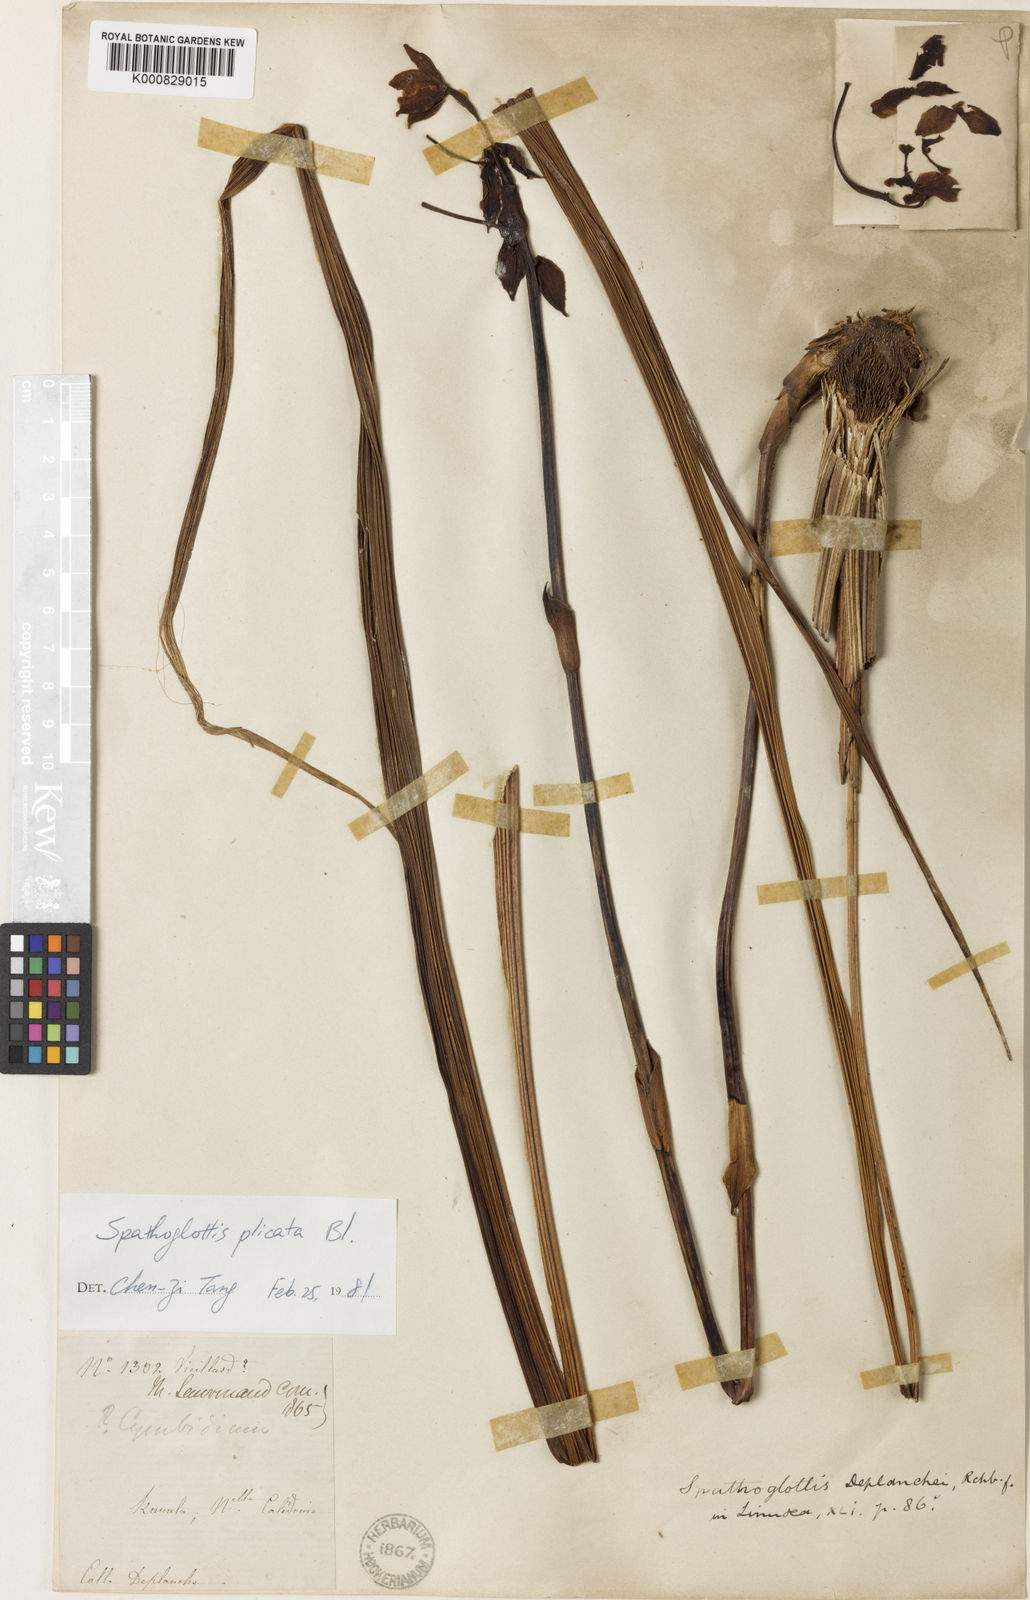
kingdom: Plantae
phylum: Tracheophyta
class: Liliopsida
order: Asparagales
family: Orchidaceae
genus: Spathoglottis
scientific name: Spathoglottis plicata
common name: Philippine ground orchid
